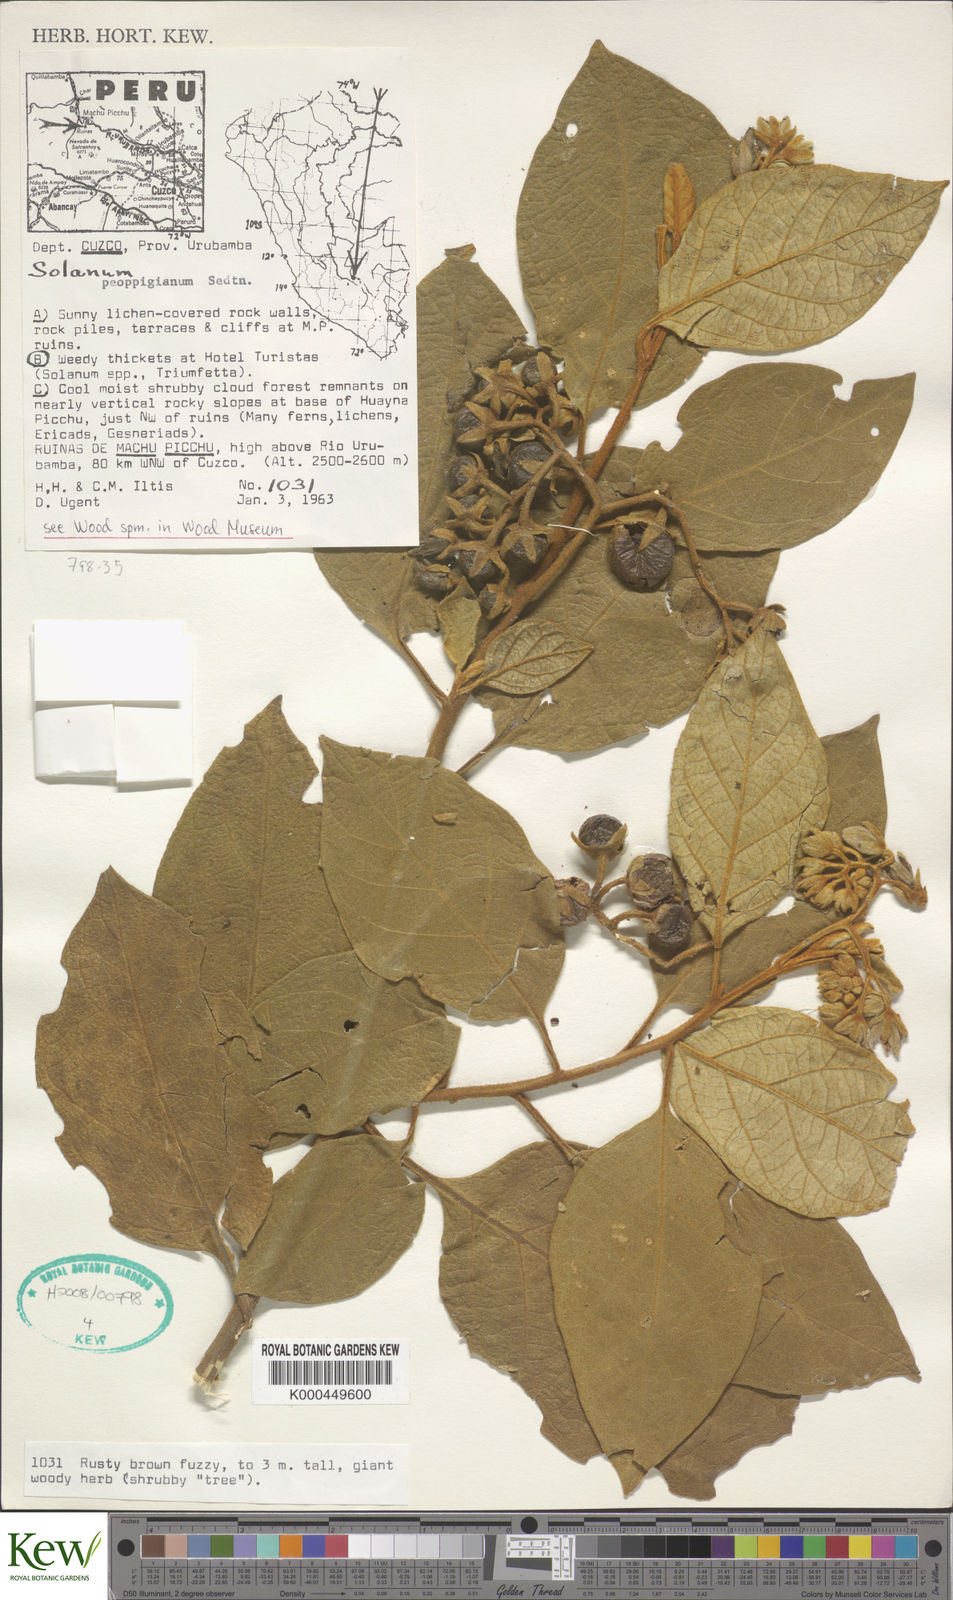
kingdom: Plantae
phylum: Tracheophyta
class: Magnoliopsida
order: Solanales
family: Solanaceae
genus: Solanum
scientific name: Solanum valdiviense
